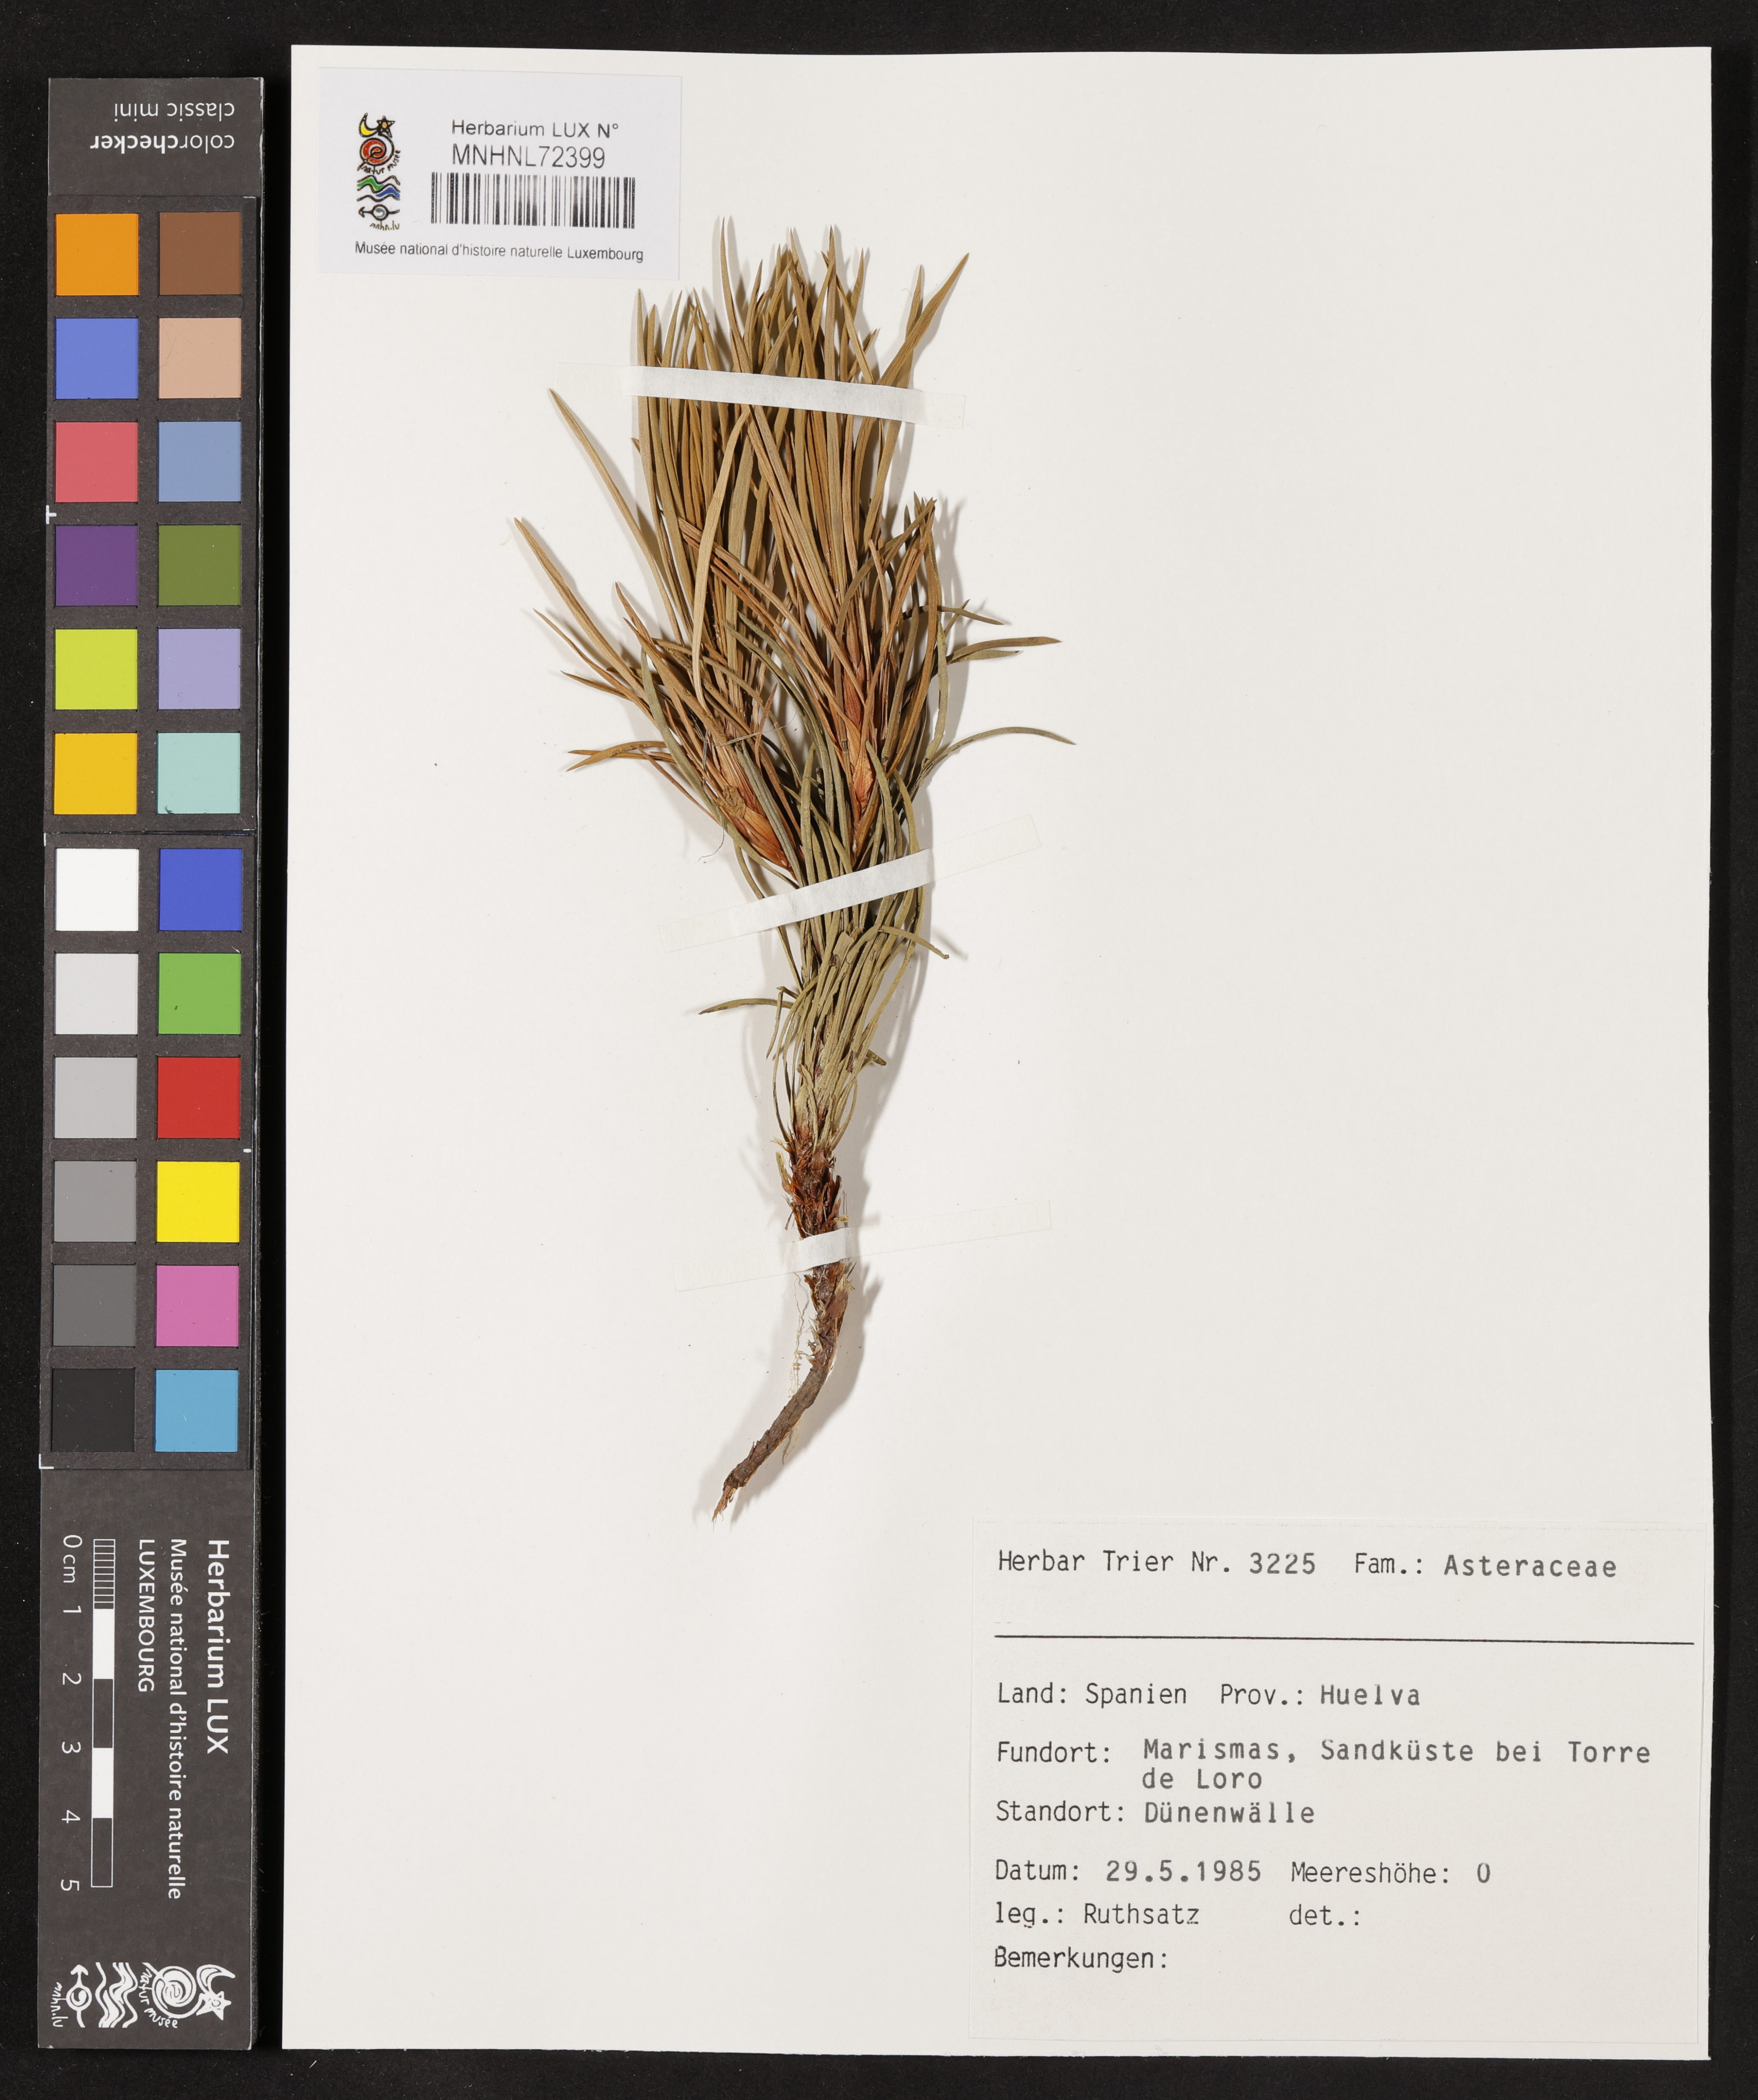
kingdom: Plantae
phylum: Tracheophyta
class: Magnoliopsida
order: Asterales
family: Asteraceae
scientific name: Asteraceae
